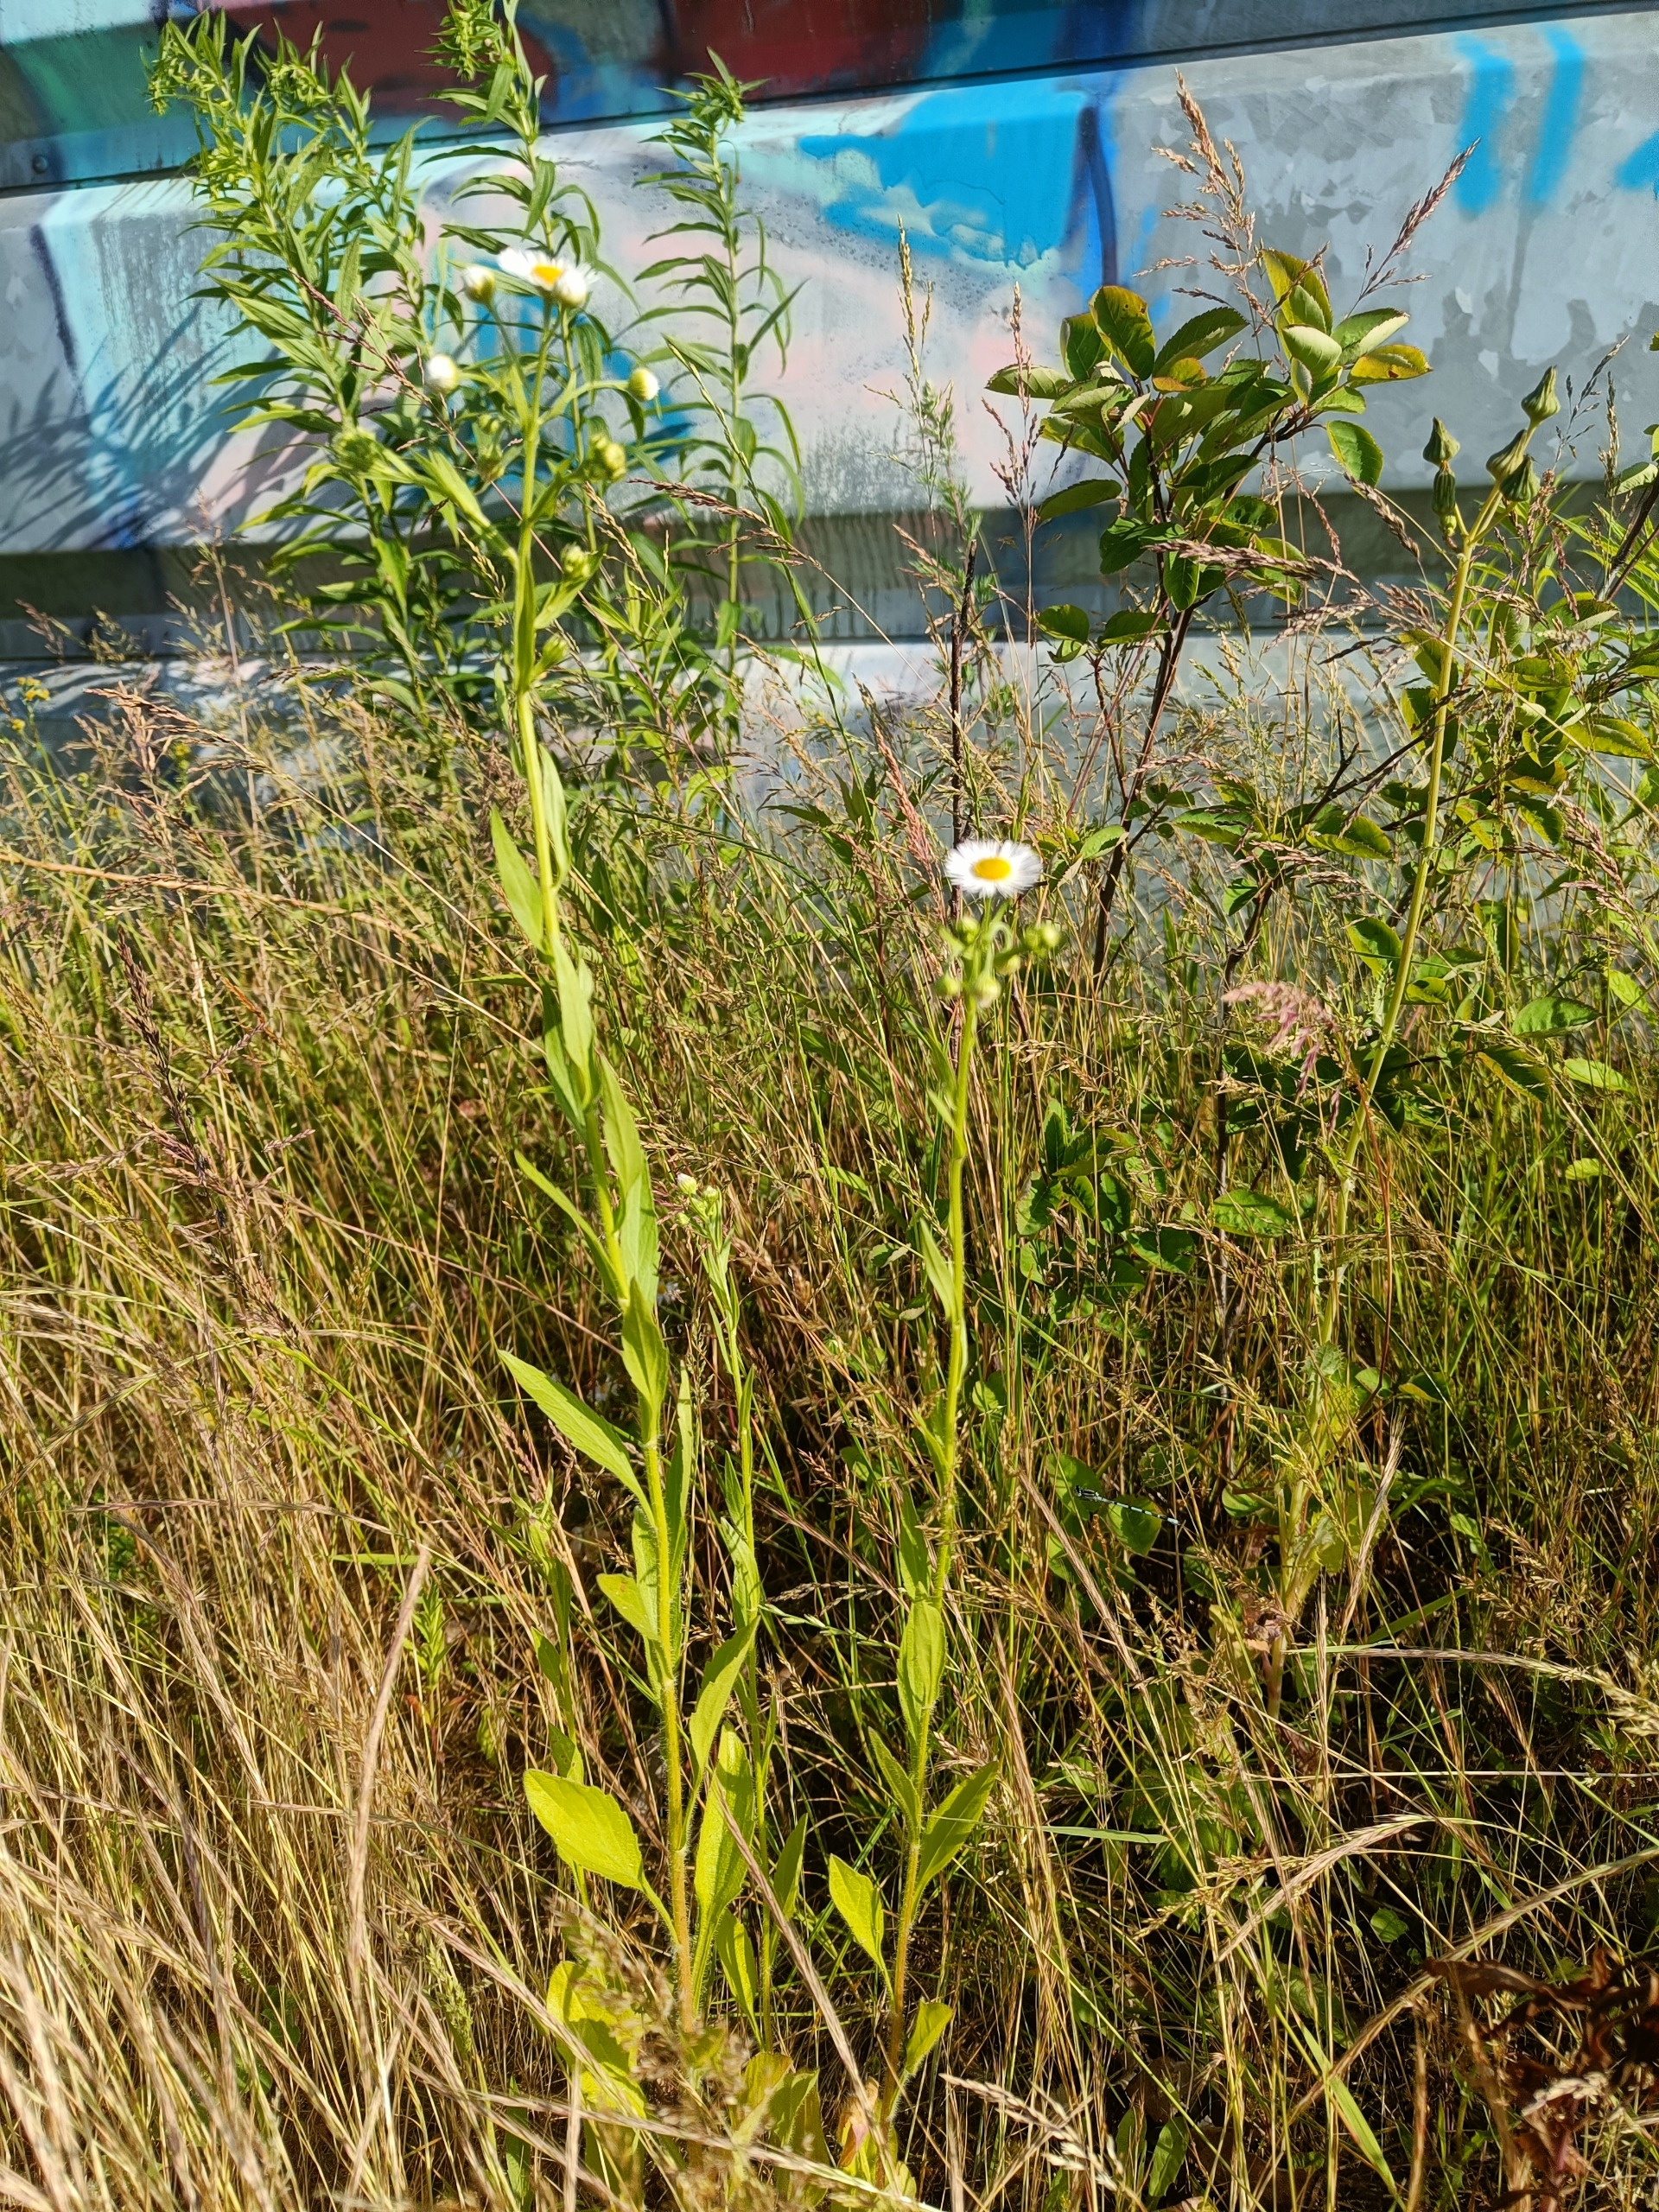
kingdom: Plantae
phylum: Tracheophyta
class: Magnoliopsida
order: Asterales
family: Asteraceae
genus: Erigeron
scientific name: Erigeron annuus
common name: Smalstråle
